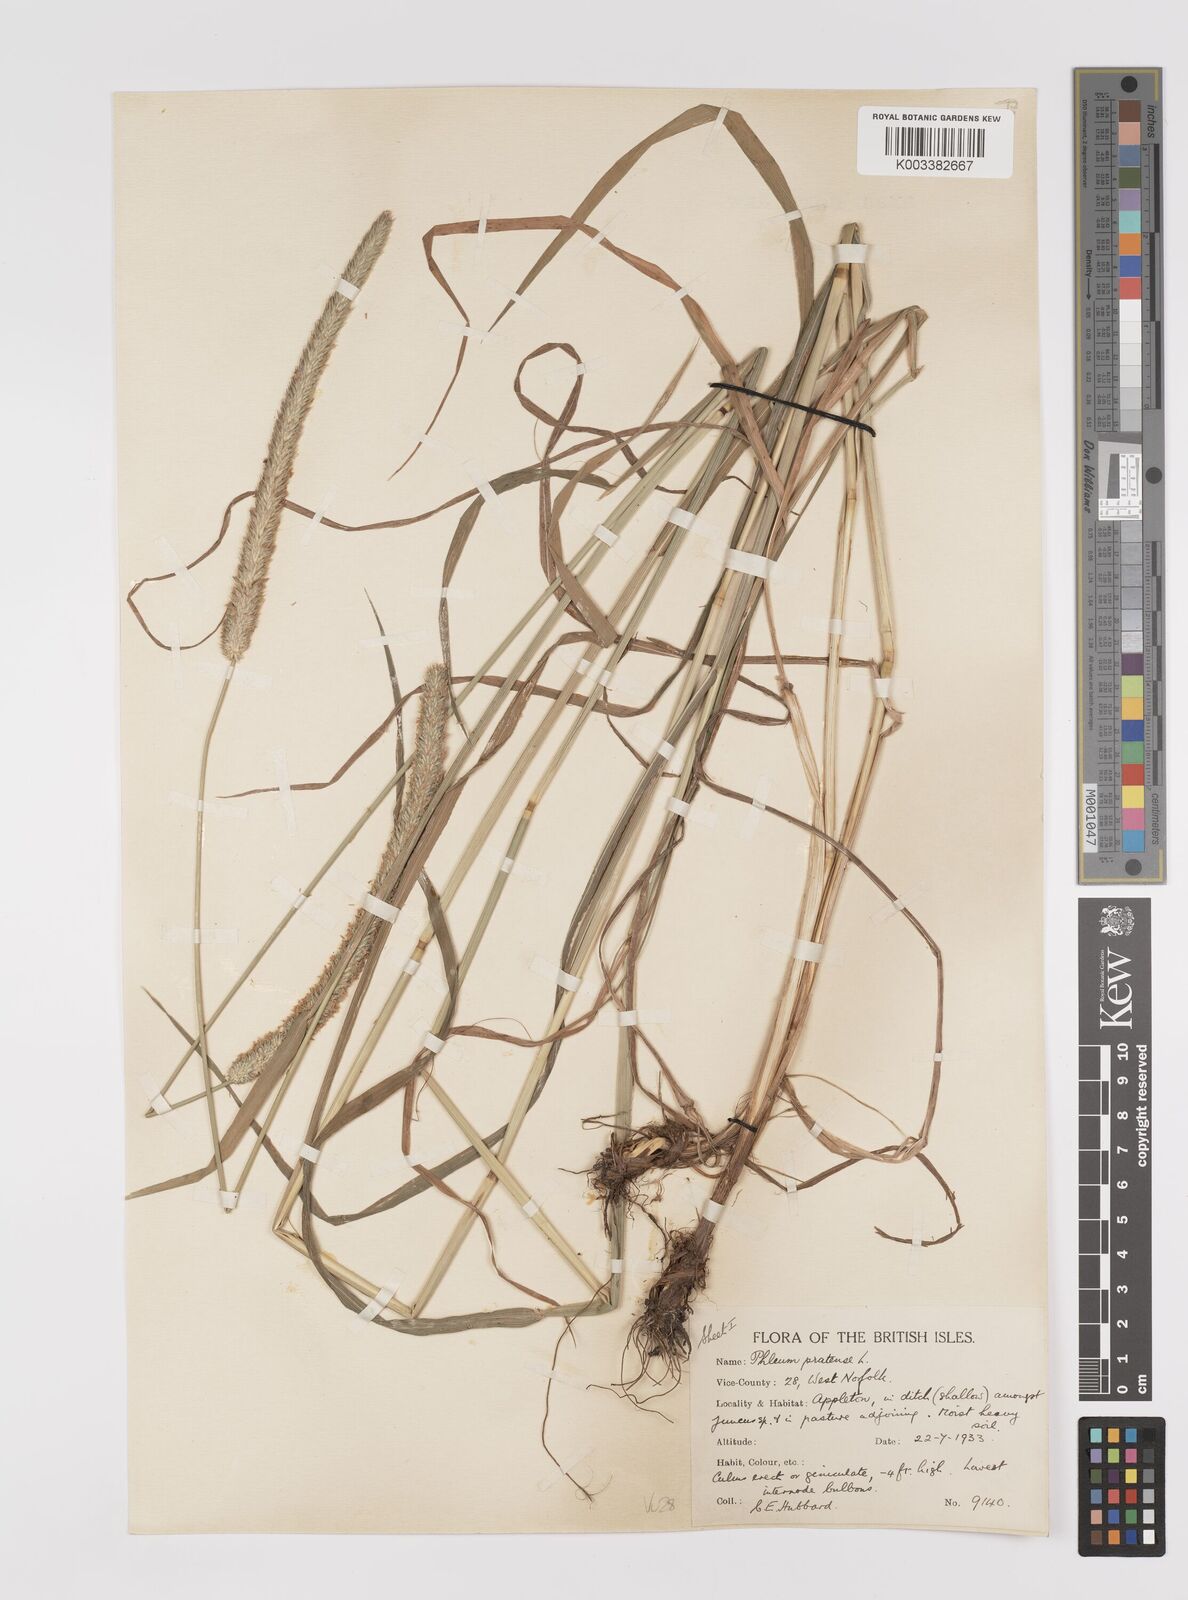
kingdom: Plantae
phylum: Tracheophyta
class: Liliopsida
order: Poales
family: Poaceae
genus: Phleum
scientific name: Phleum pratense
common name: Timothy grass
